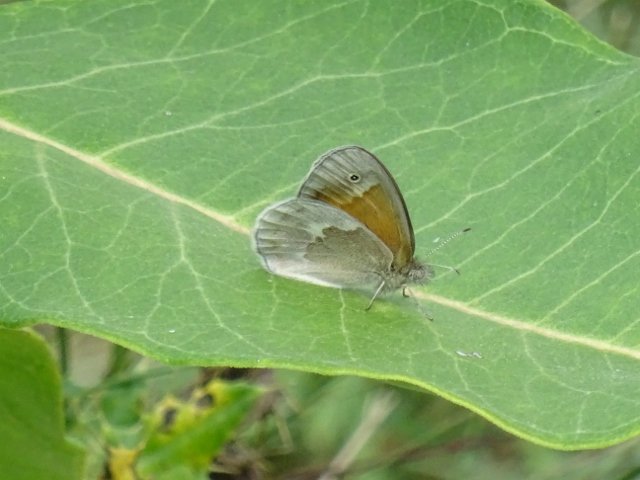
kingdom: Animalia
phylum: Arthropoda
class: Insecta
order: Lepidoptera
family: Nymphalidae
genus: Coenonympha
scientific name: Coenonympha tullia
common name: Large Heath
